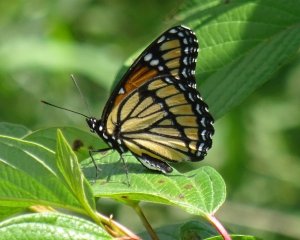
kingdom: Animalia
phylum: Arthropoda
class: Insecta
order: Lepidoptera
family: Nymphalidae
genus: Limenitis
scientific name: Limenitis archippus
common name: Viceroy
